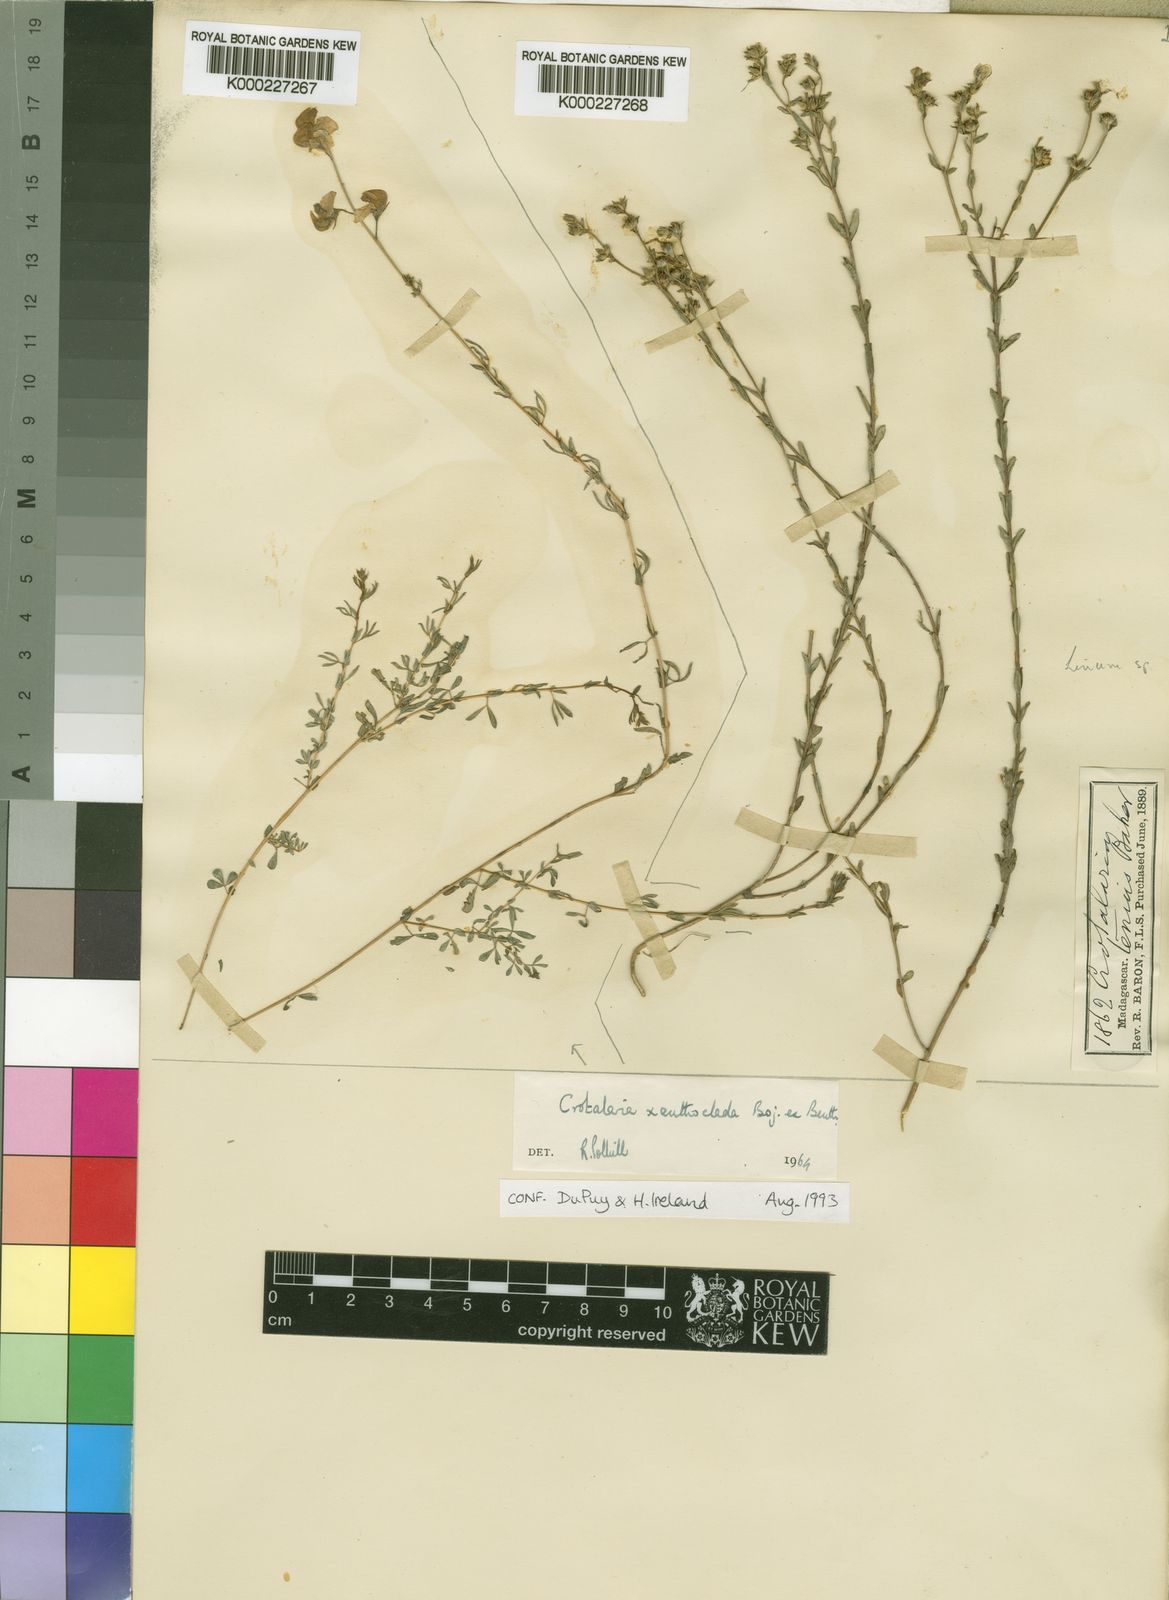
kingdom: Plantae
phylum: Tracheophyta
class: Magnoliopsida
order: Fabales
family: Fabaceae
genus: Crotalaria
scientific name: Crotalaria xanthoclada
